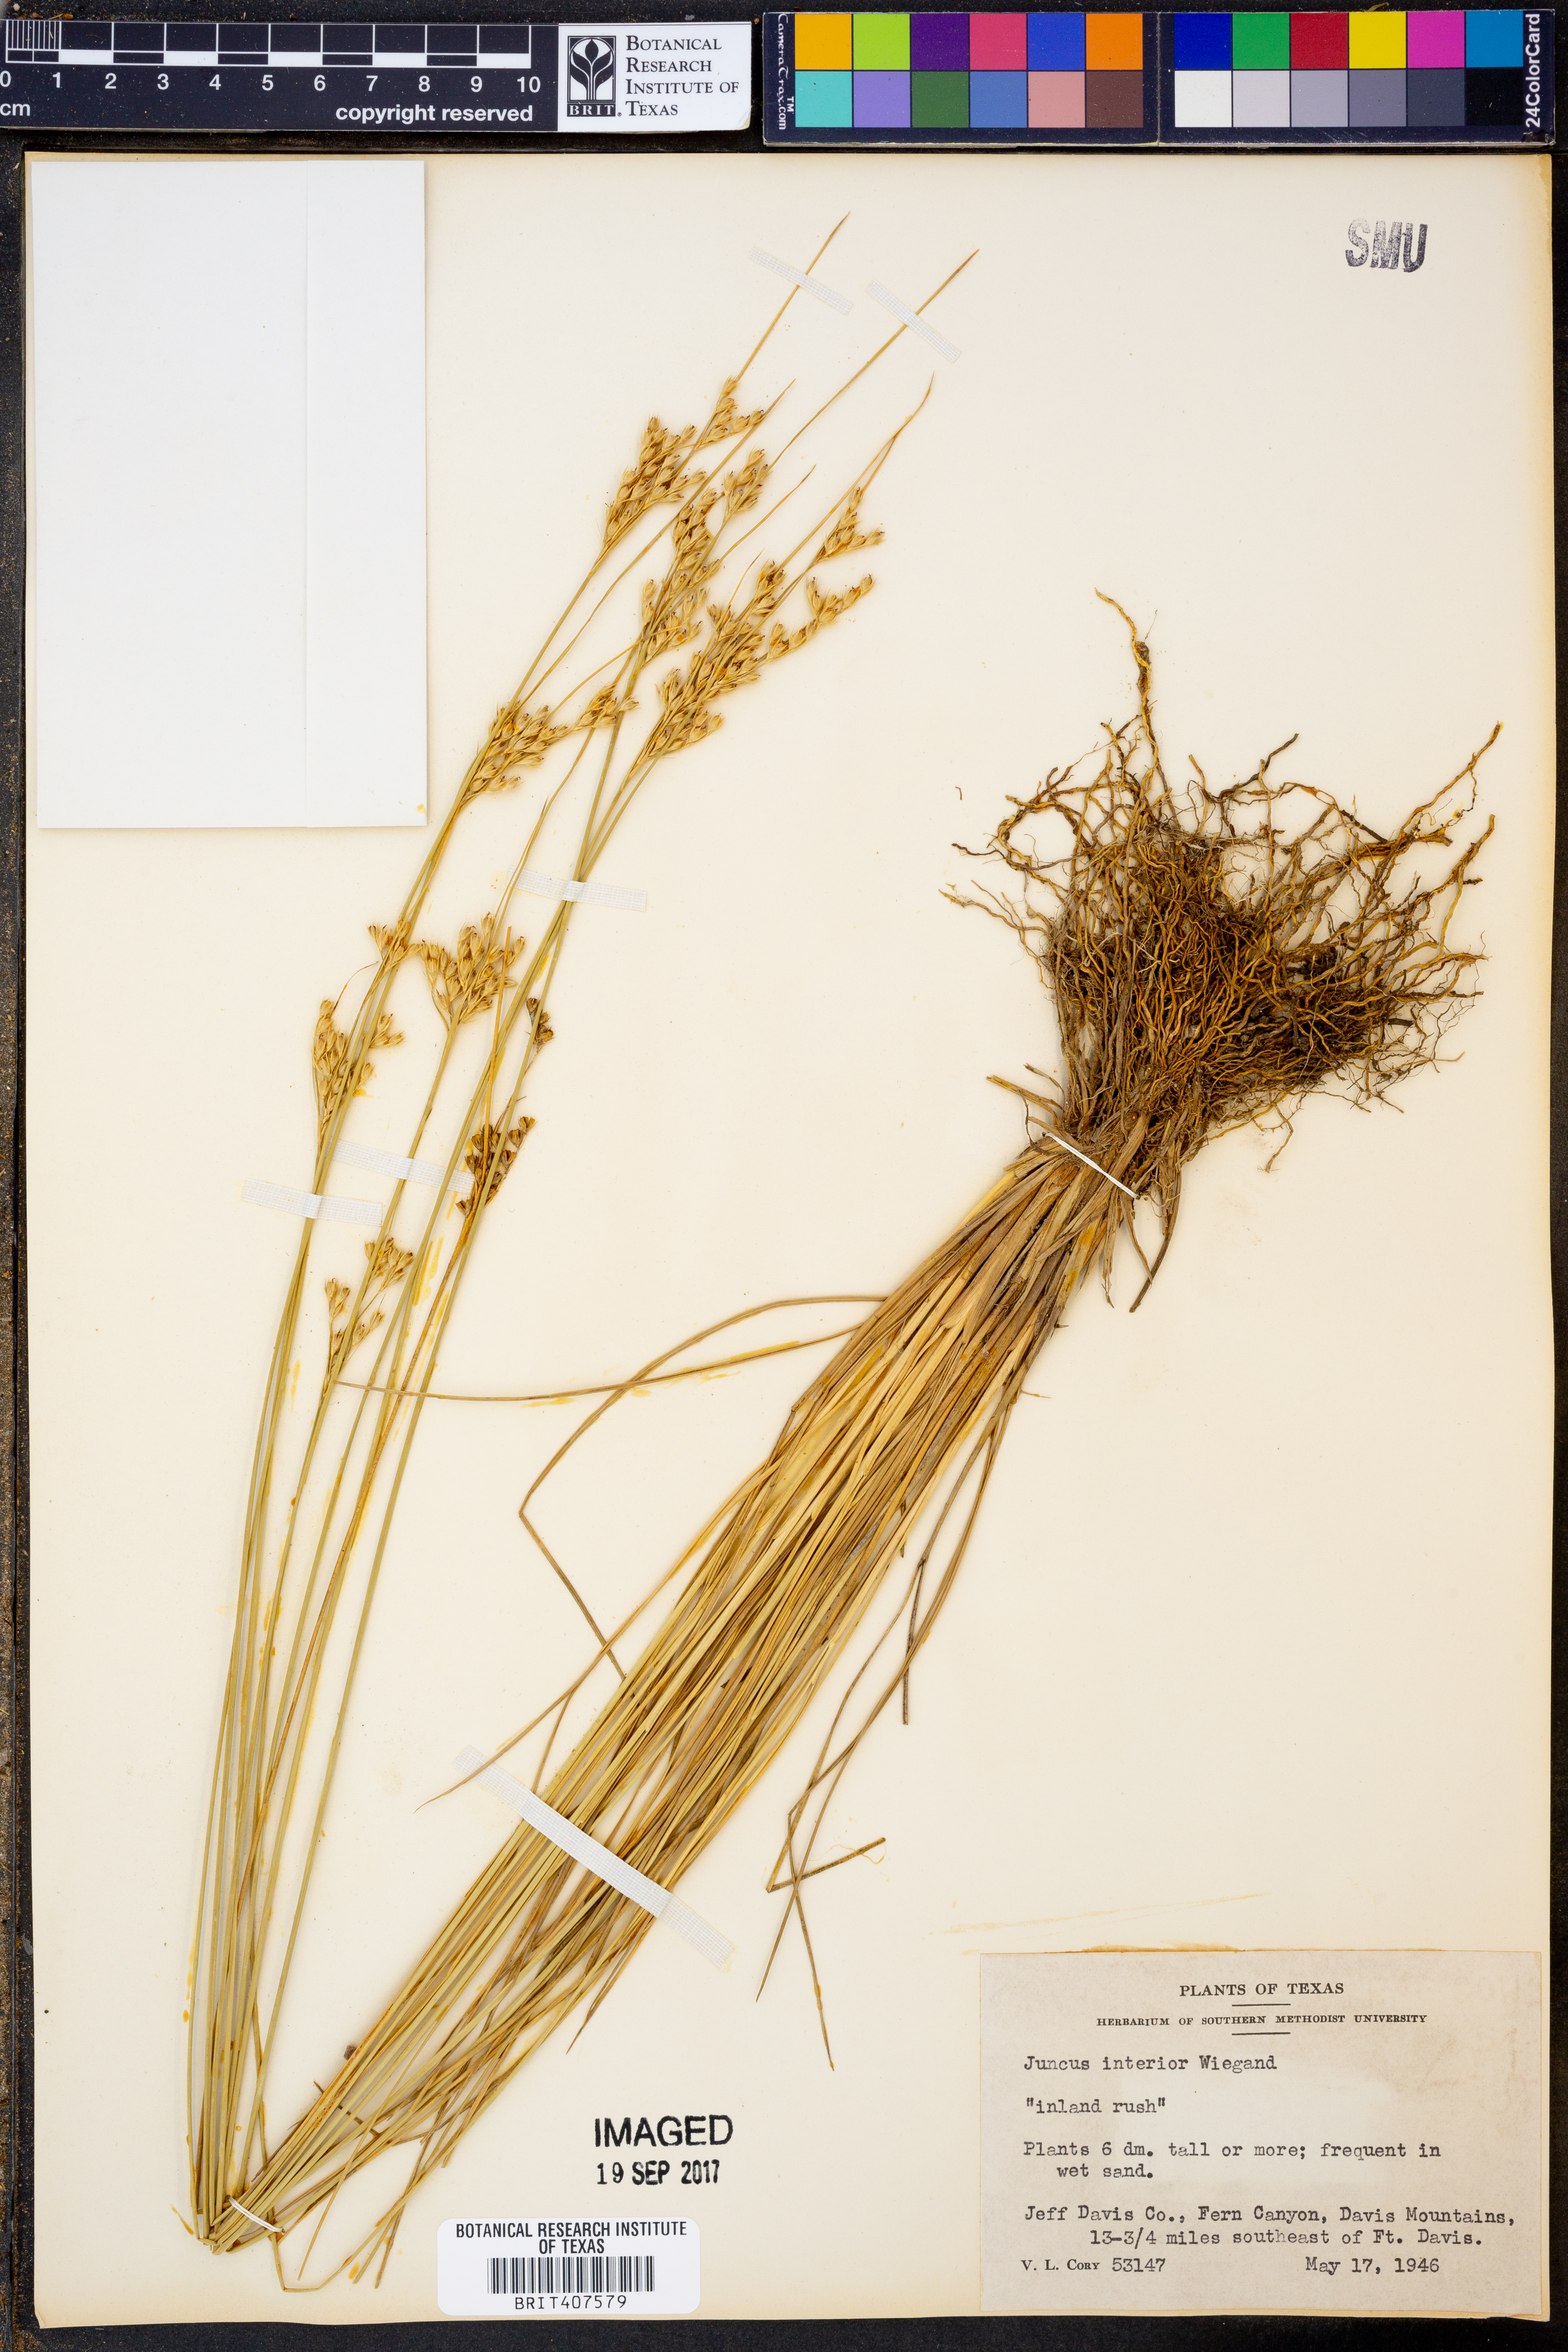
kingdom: Plantae
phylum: Tracheophyta
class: Liliopsida
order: Poales
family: Juncaceae
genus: Juncus
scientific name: Juncus interior
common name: Interior rush
